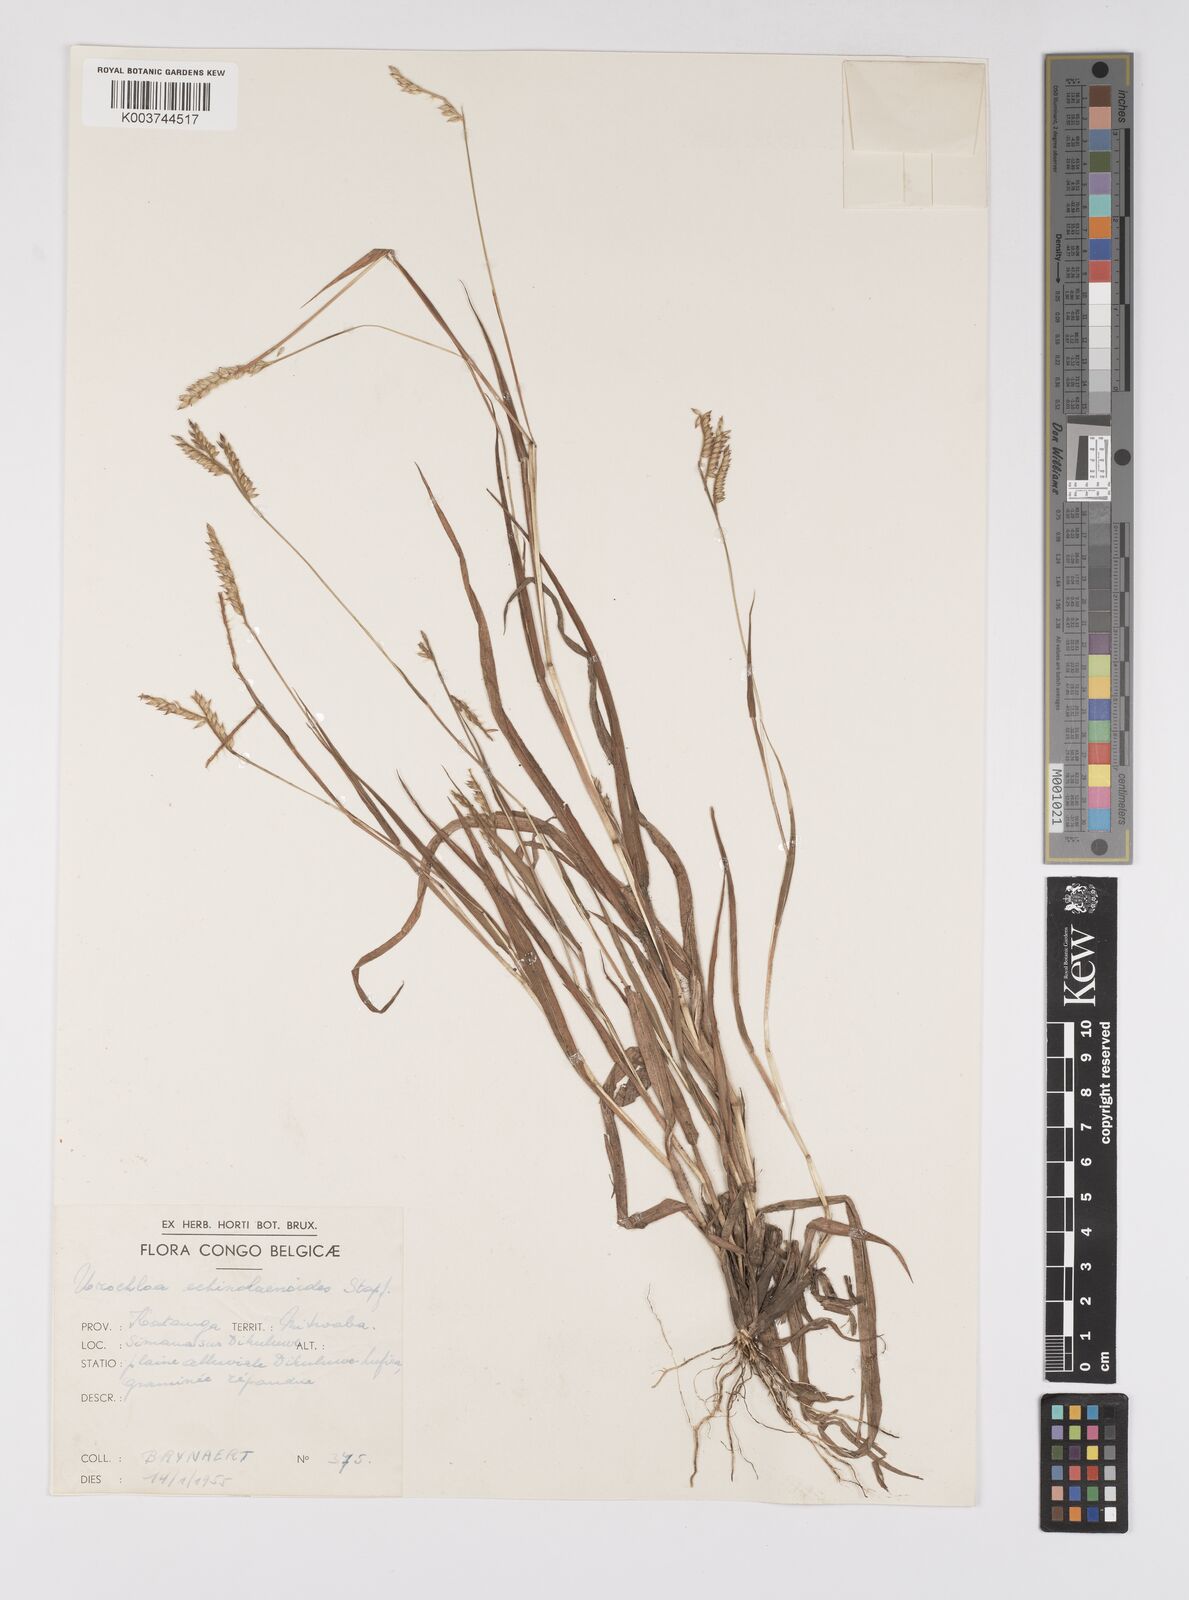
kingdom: Plantae
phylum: Tracheophyta
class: Liliopsida
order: Poales
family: Poaceae
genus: Urochloa
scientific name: Urochloa echinolaenoides
